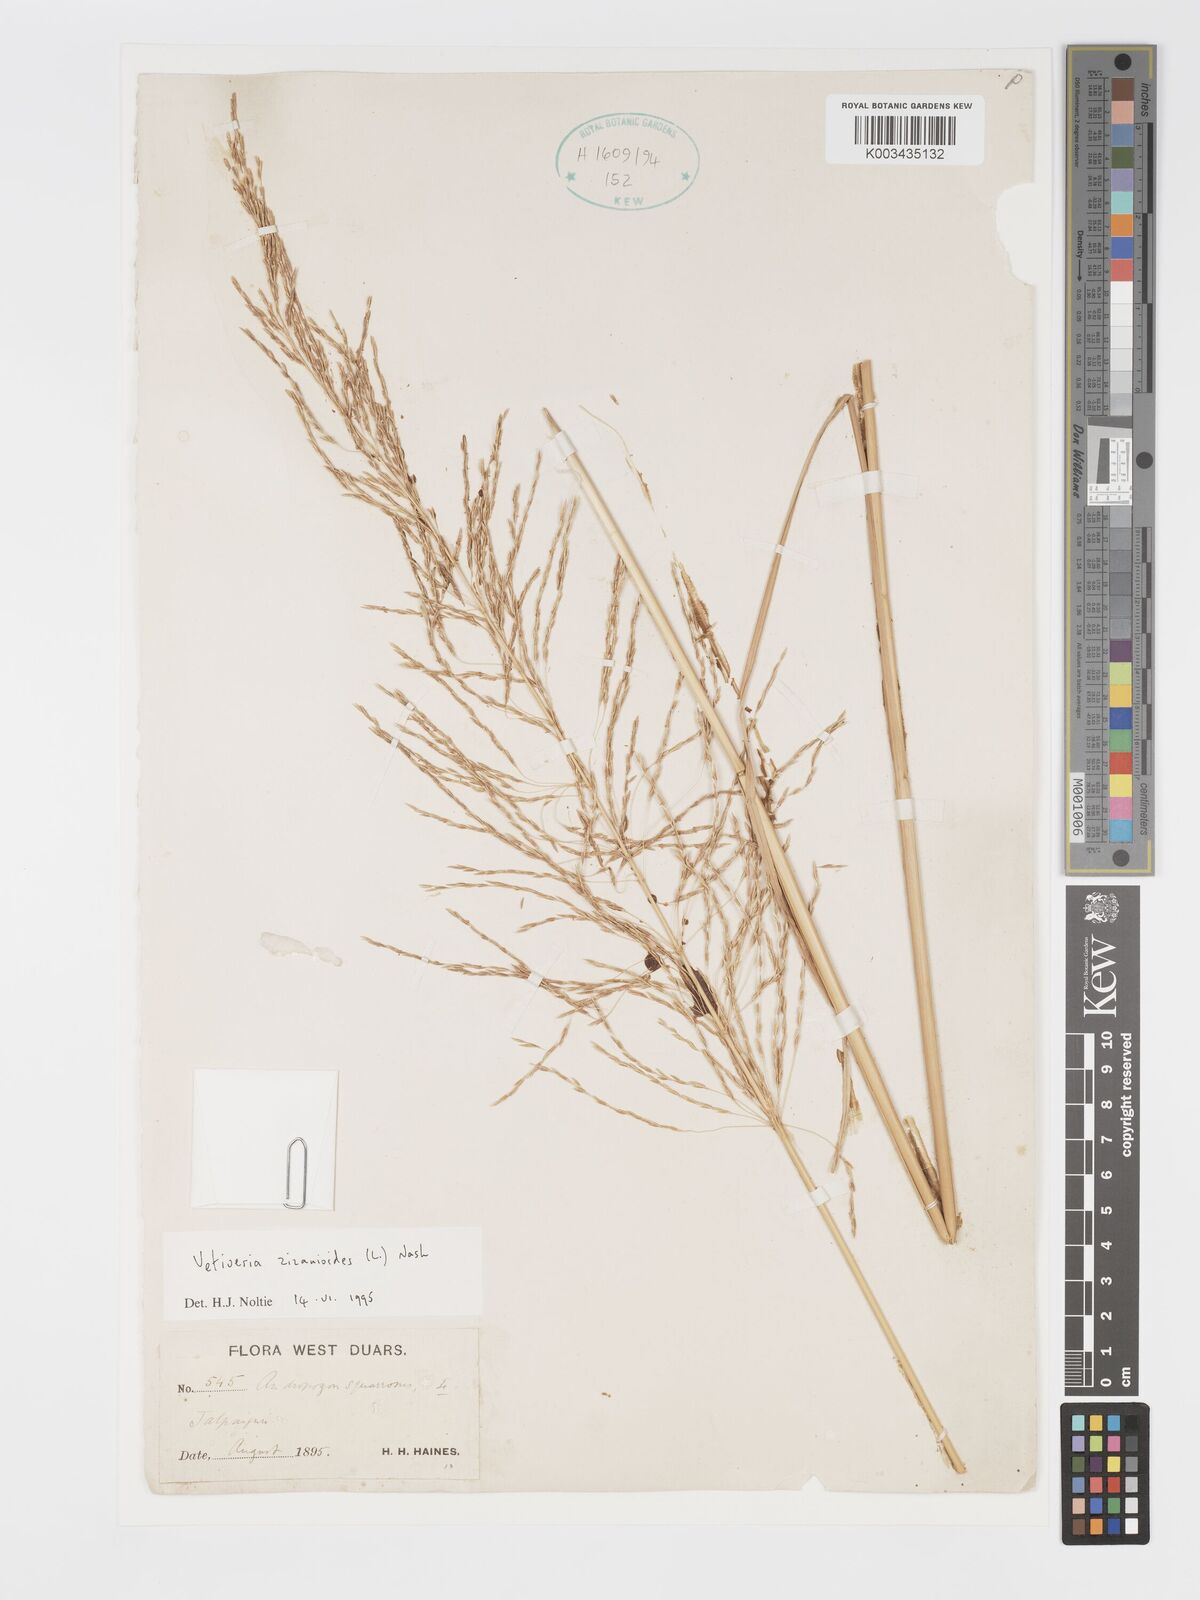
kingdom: Plantae
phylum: Tracheophyta
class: Liliopsida
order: Poales
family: Poaceae
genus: Chrysopogon
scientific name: Chrysopogon zizanioides
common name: False beardgrass
